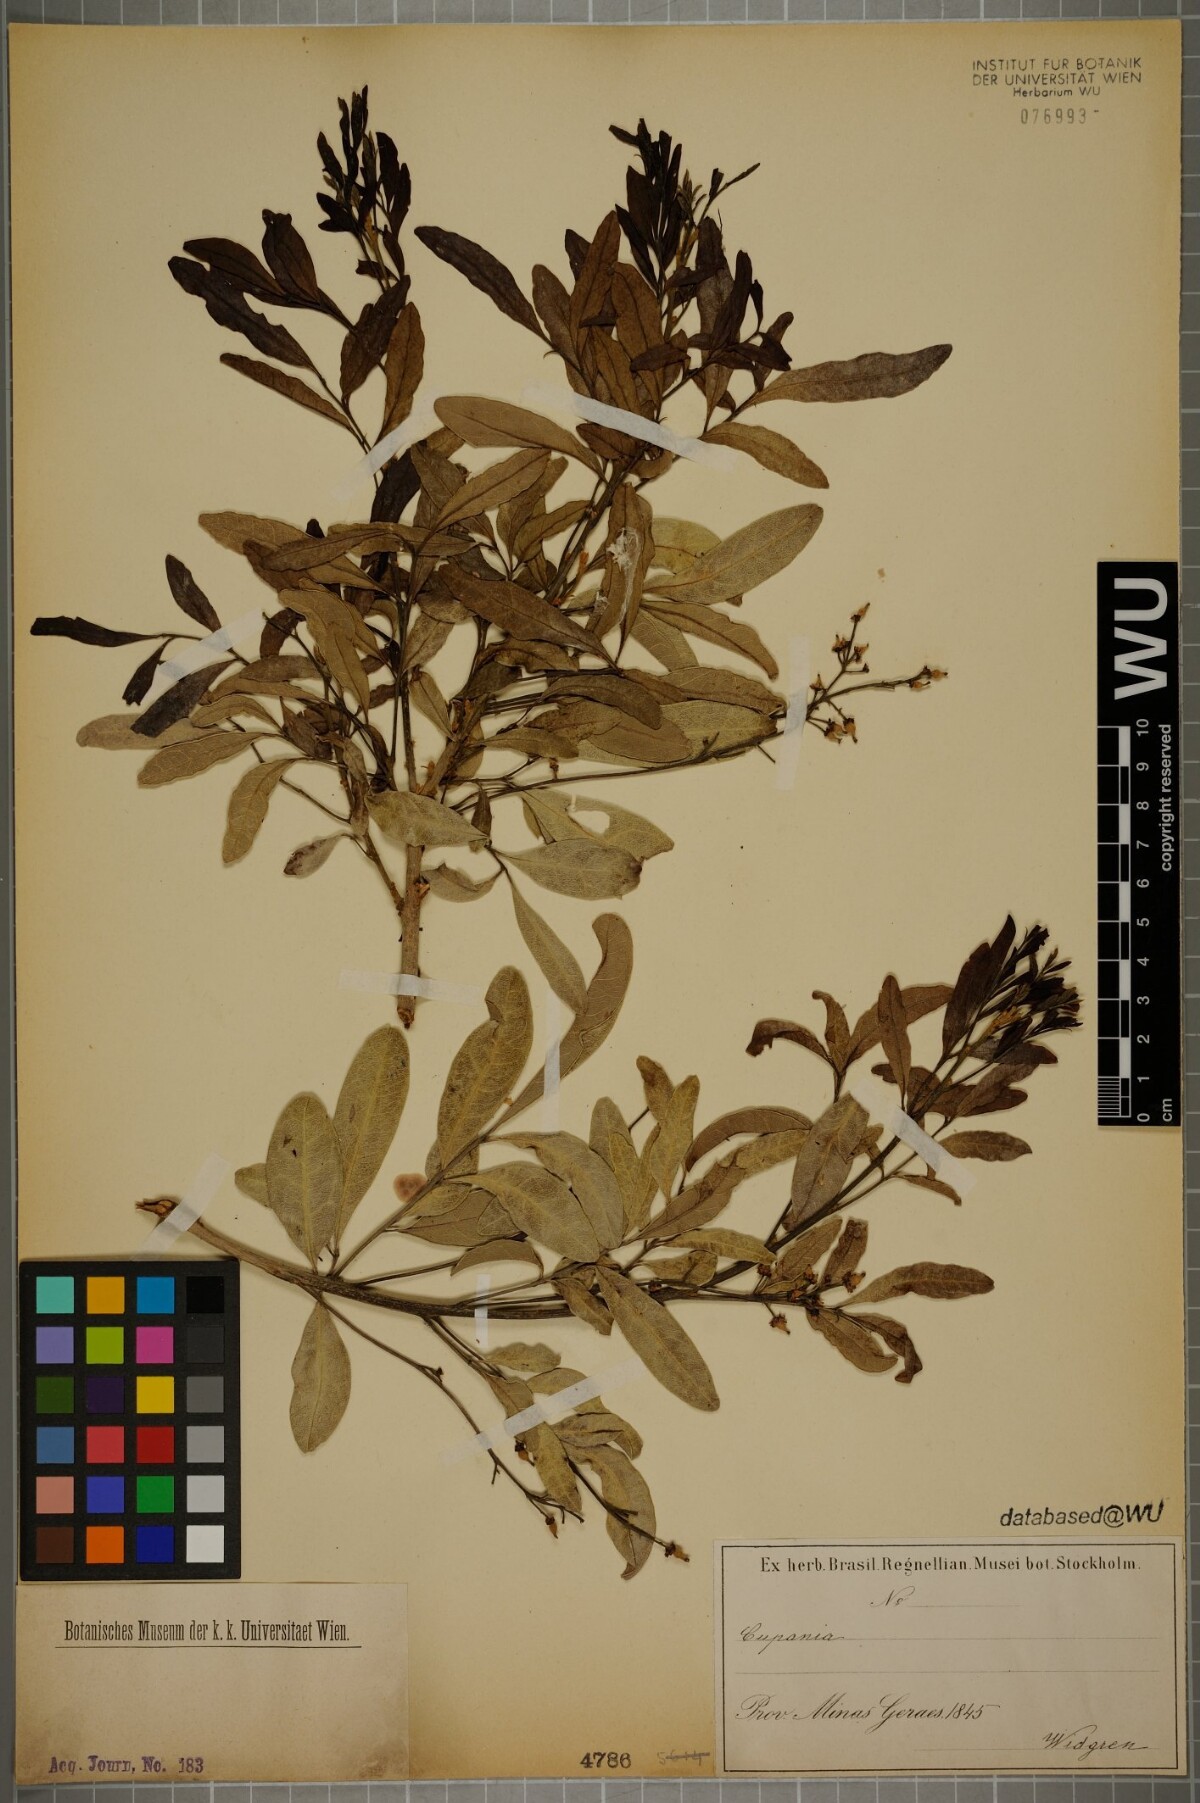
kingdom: Plantae
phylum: Tracheophyta
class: Magnoliopsida
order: Sapindales
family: Sapindaceae
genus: Cupania
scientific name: Cupania
